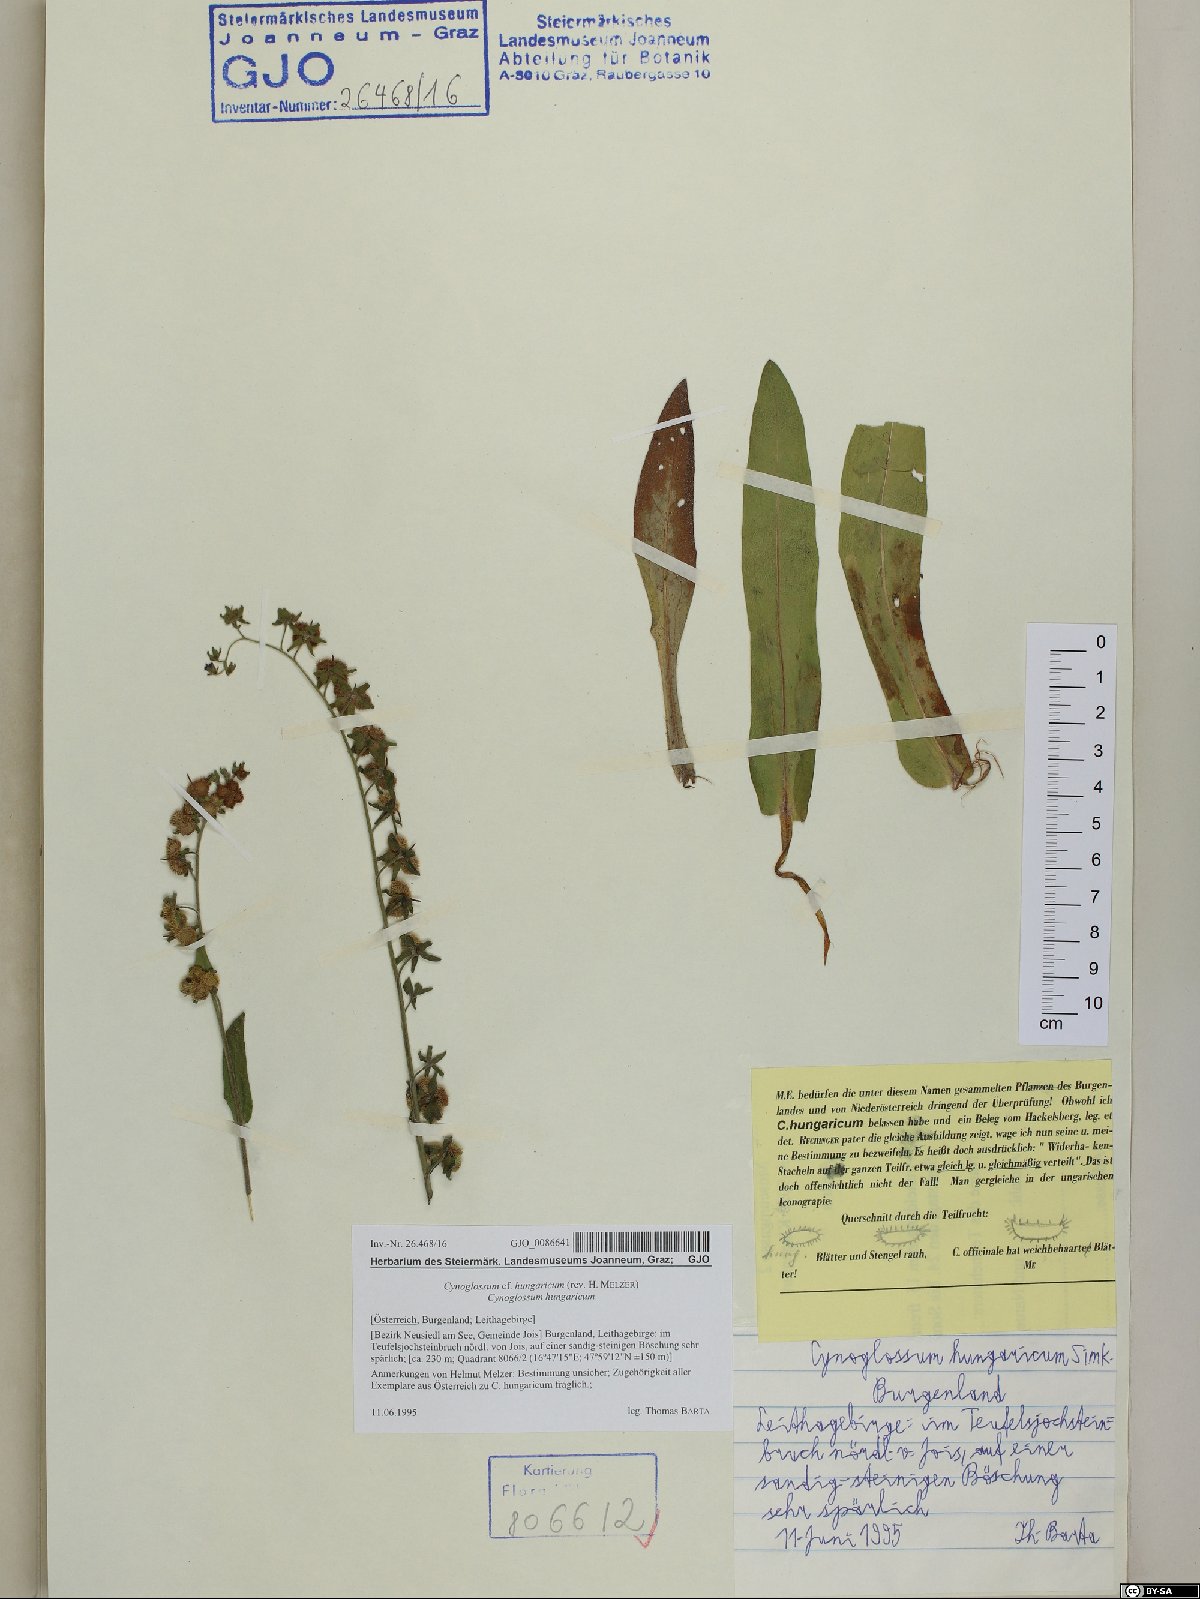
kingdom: Plantae
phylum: Tracheophyta
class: Magnoliopsida
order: Boraginales
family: Boraginaceae
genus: Cynoglossum
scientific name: Cynoglossum montanum
